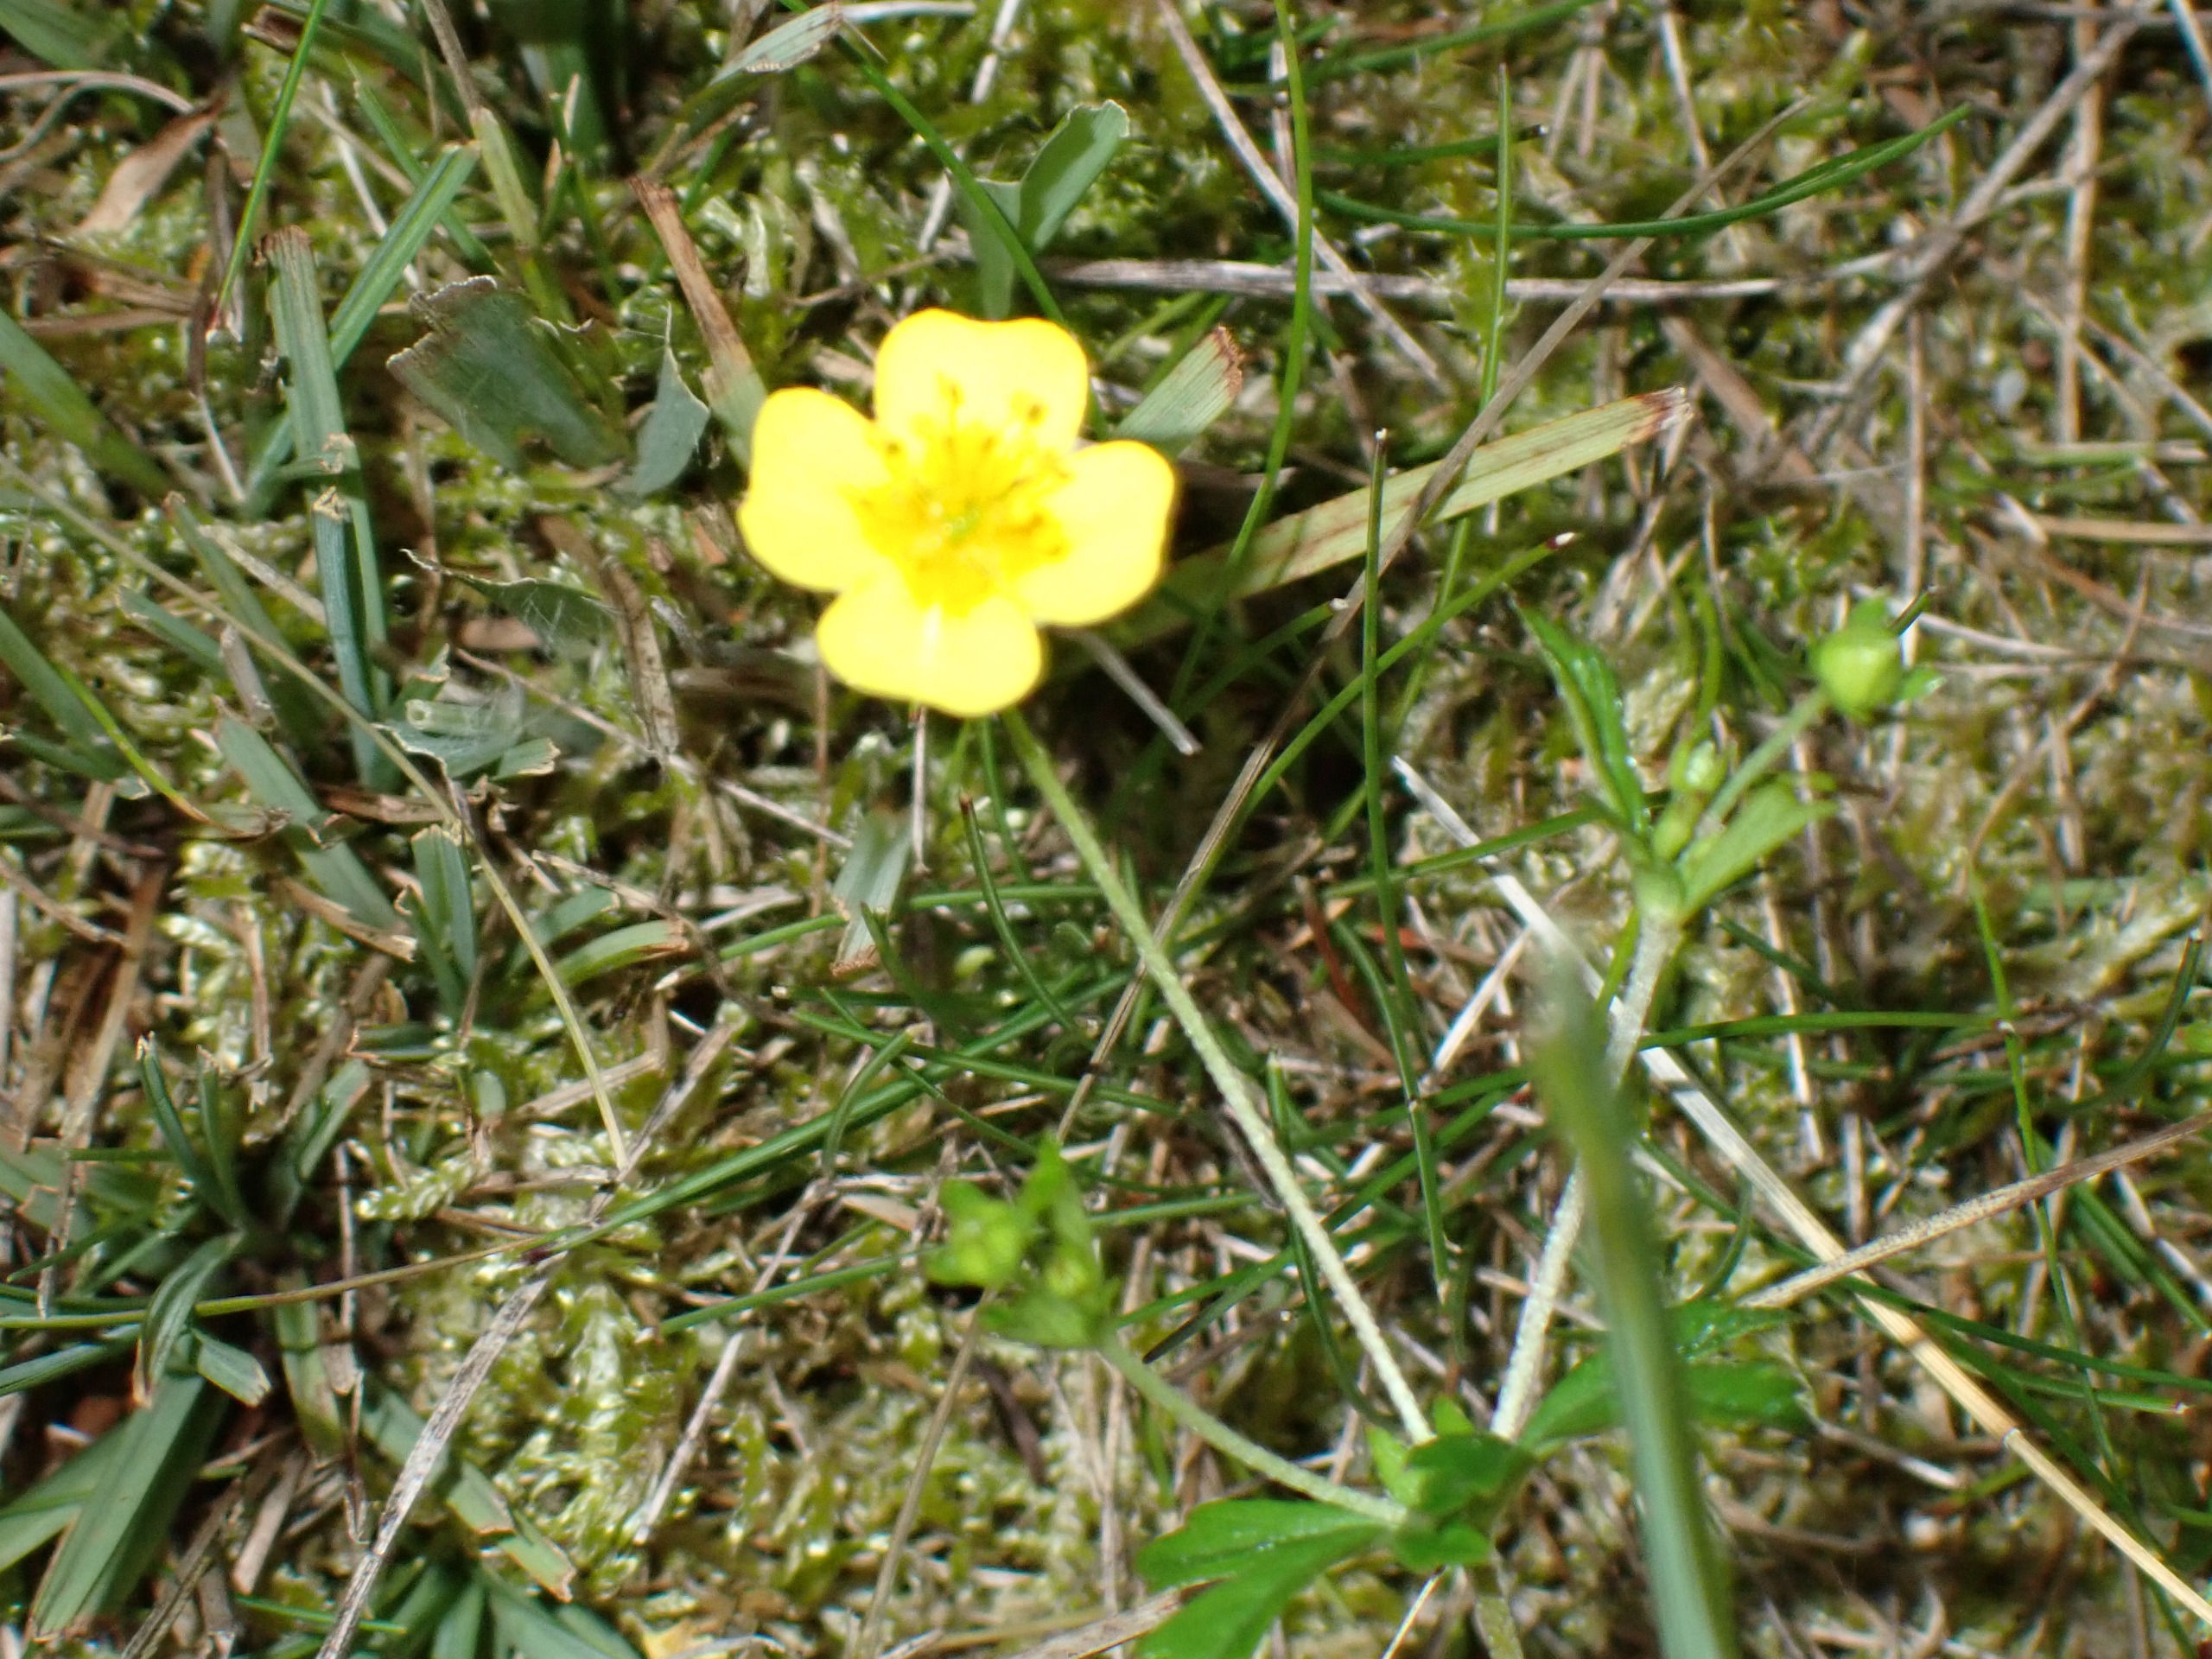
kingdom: Plantae
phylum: Tracheophyta
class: Magnoliopsida
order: Rosales
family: Rosaceae
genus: Potentilla
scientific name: Potentilla erecta
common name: Tormentil
